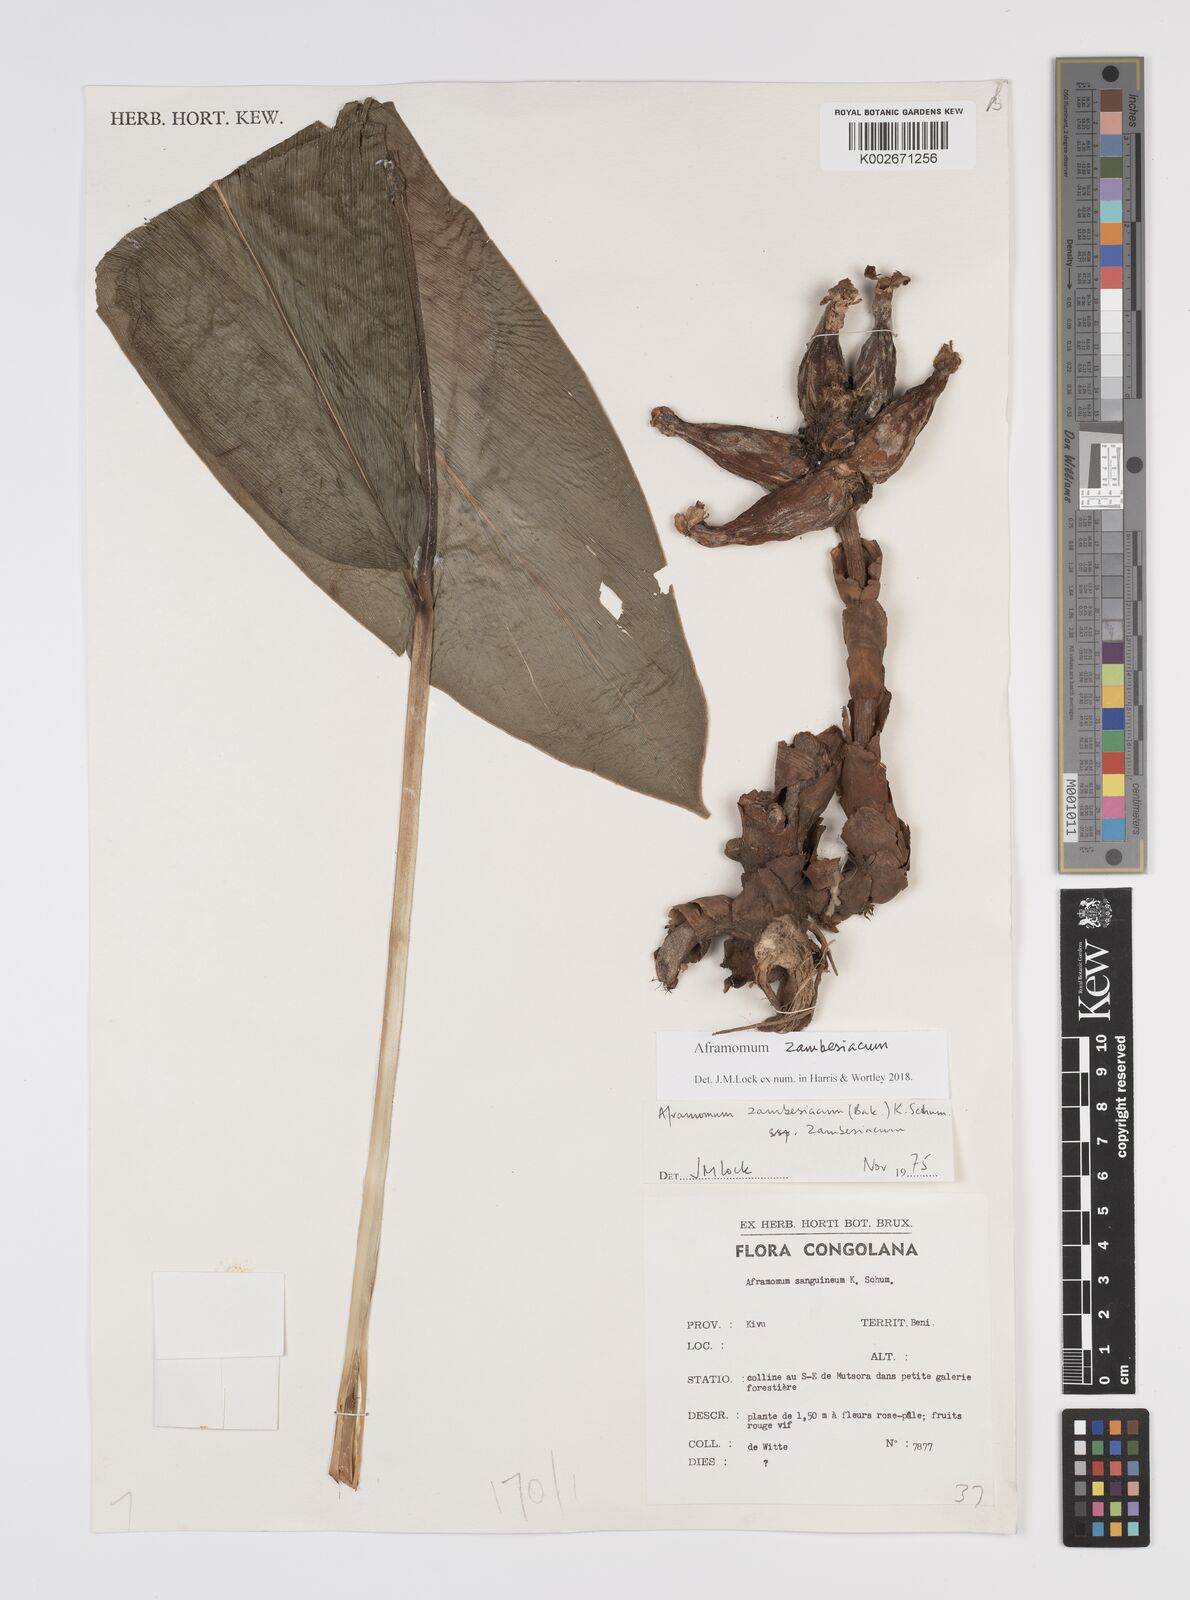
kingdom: Plantae
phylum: Tracheophyta
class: Liliopsida
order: Zingiberales
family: Zingiberaceae
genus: Aframomum
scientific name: Aframomum zambesiacum
